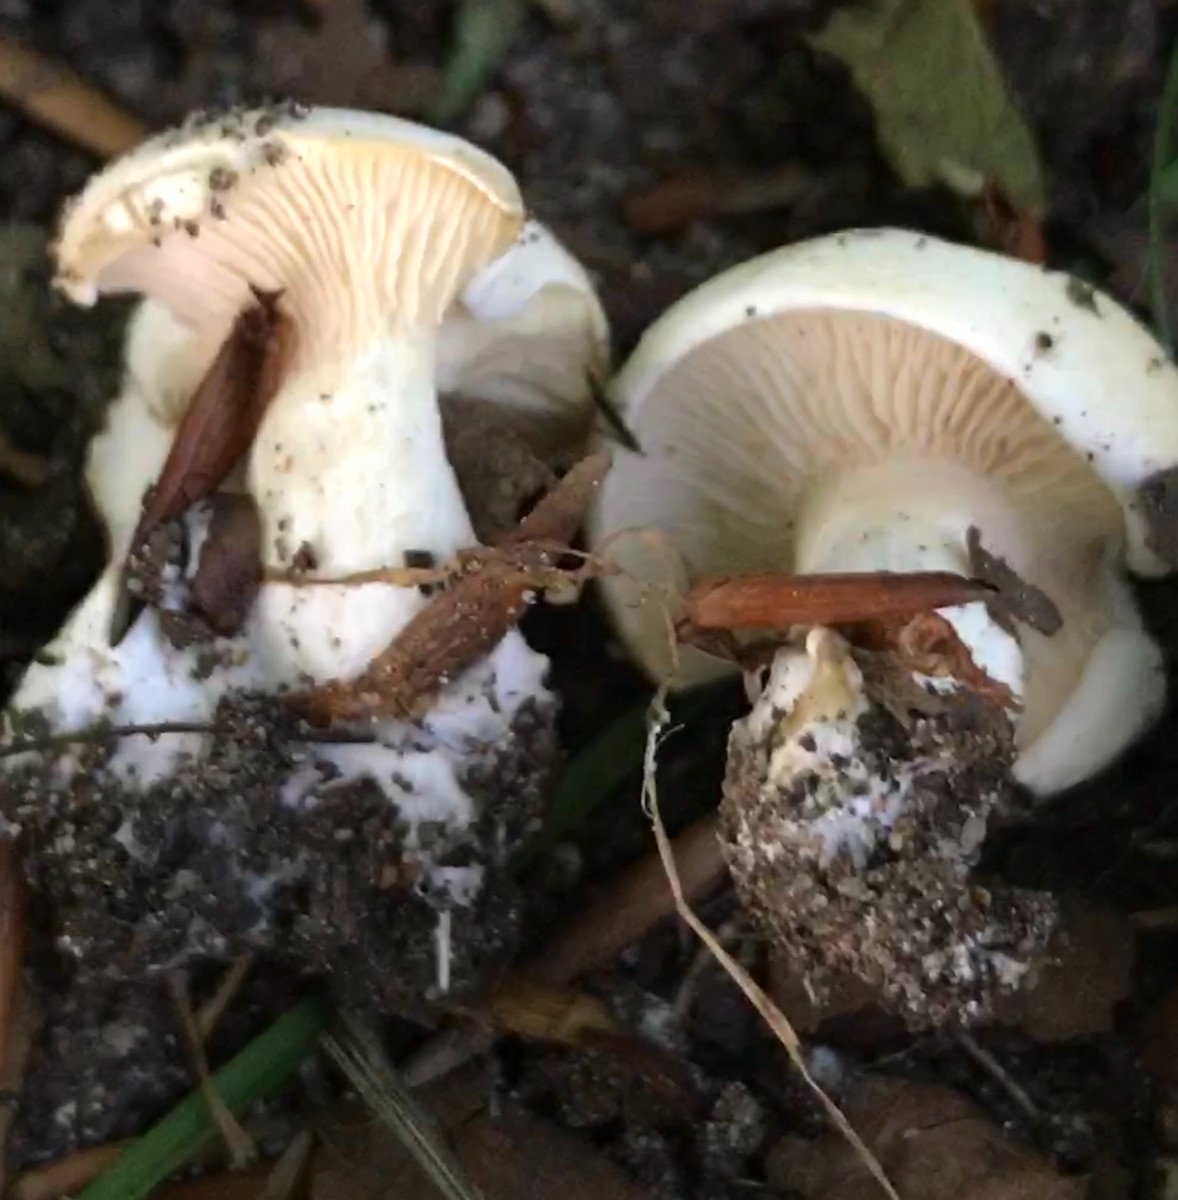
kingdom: Fungi
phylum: Basidiomycota
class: Agaricomycetes
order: Agaricales
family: Entolomataceae
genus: Clitopilus
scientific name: Clitopilus prunulus
